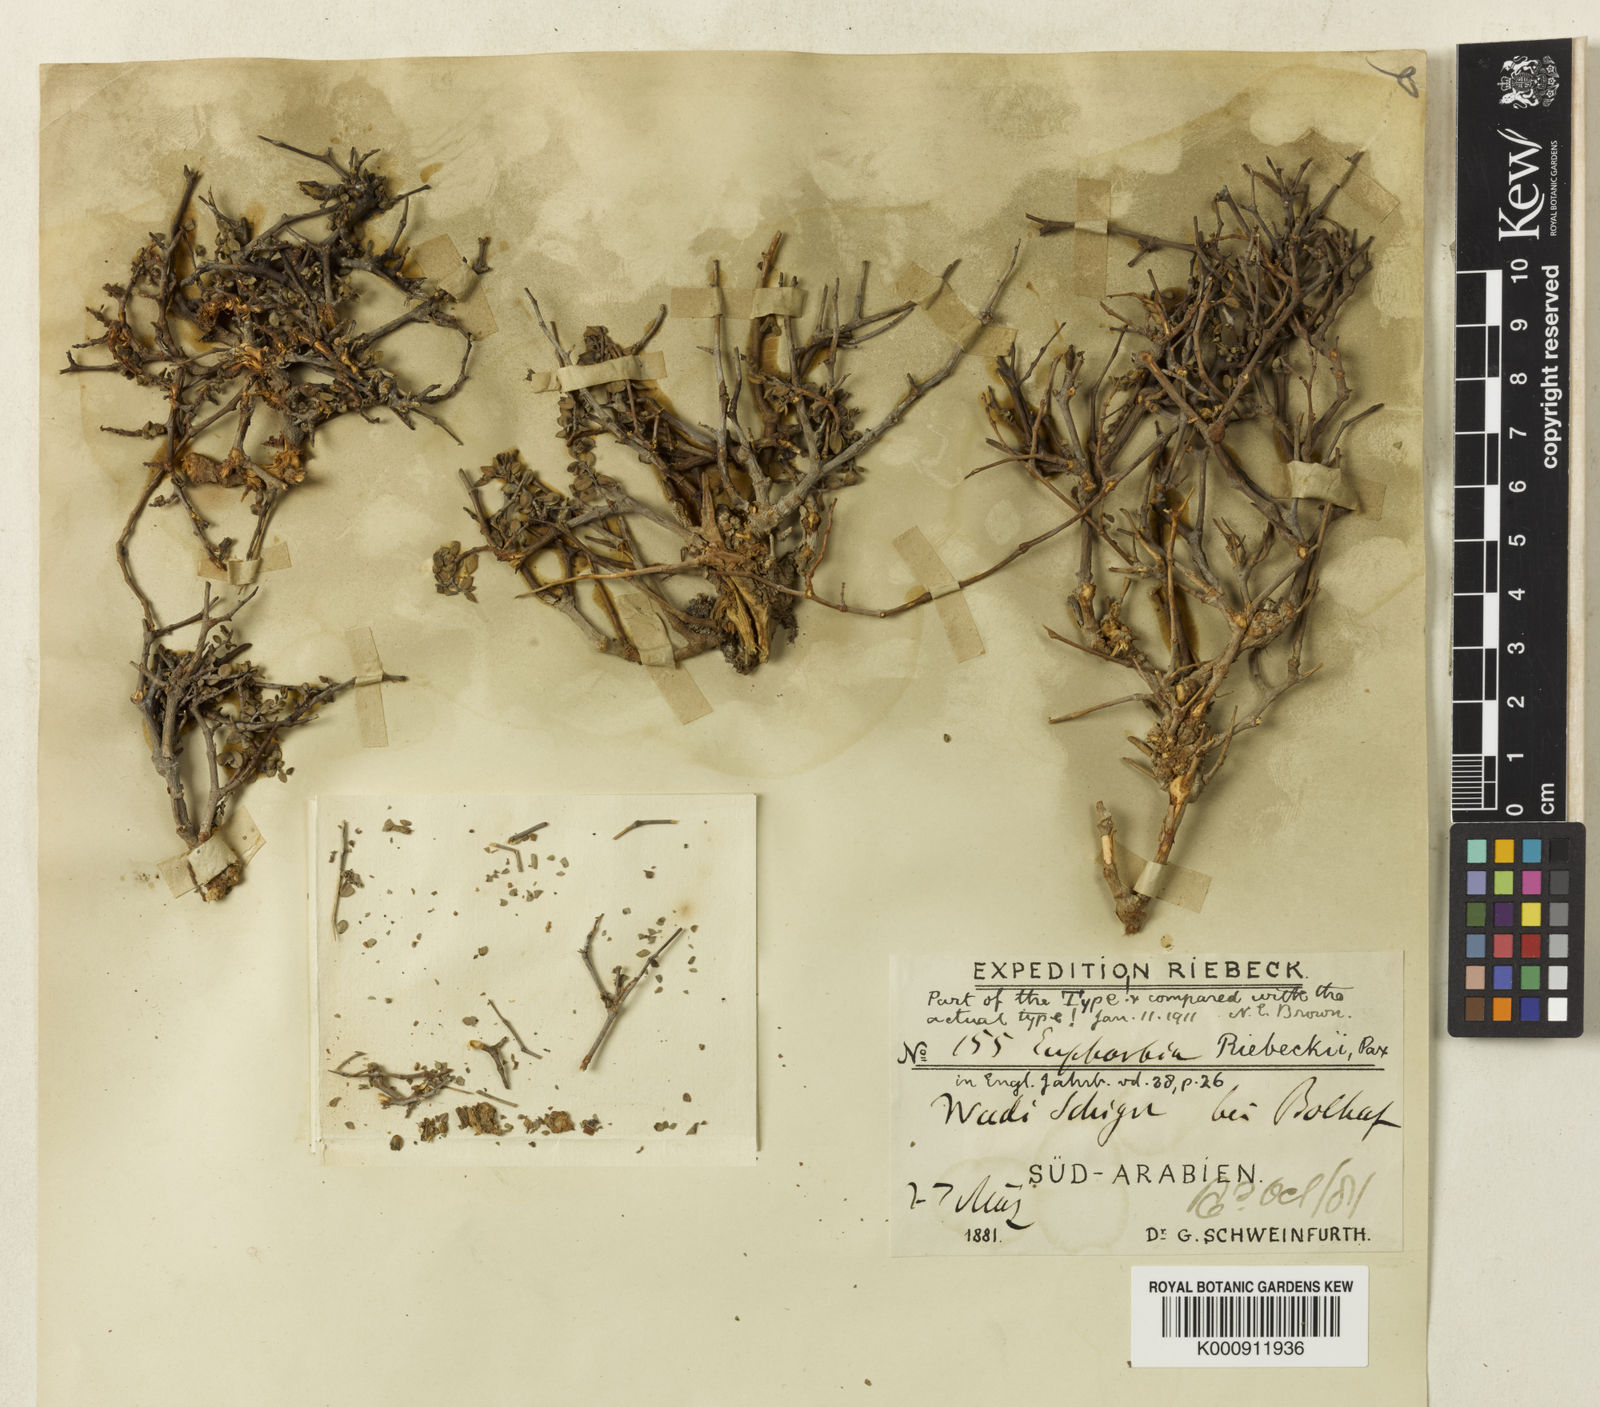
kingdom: Plantae
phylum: Tracheophyta
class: Magnoliopsida
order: Malpighiales
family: Euphorbiaceae
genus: Euphorbia
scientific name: Euphorbia riebeckii
